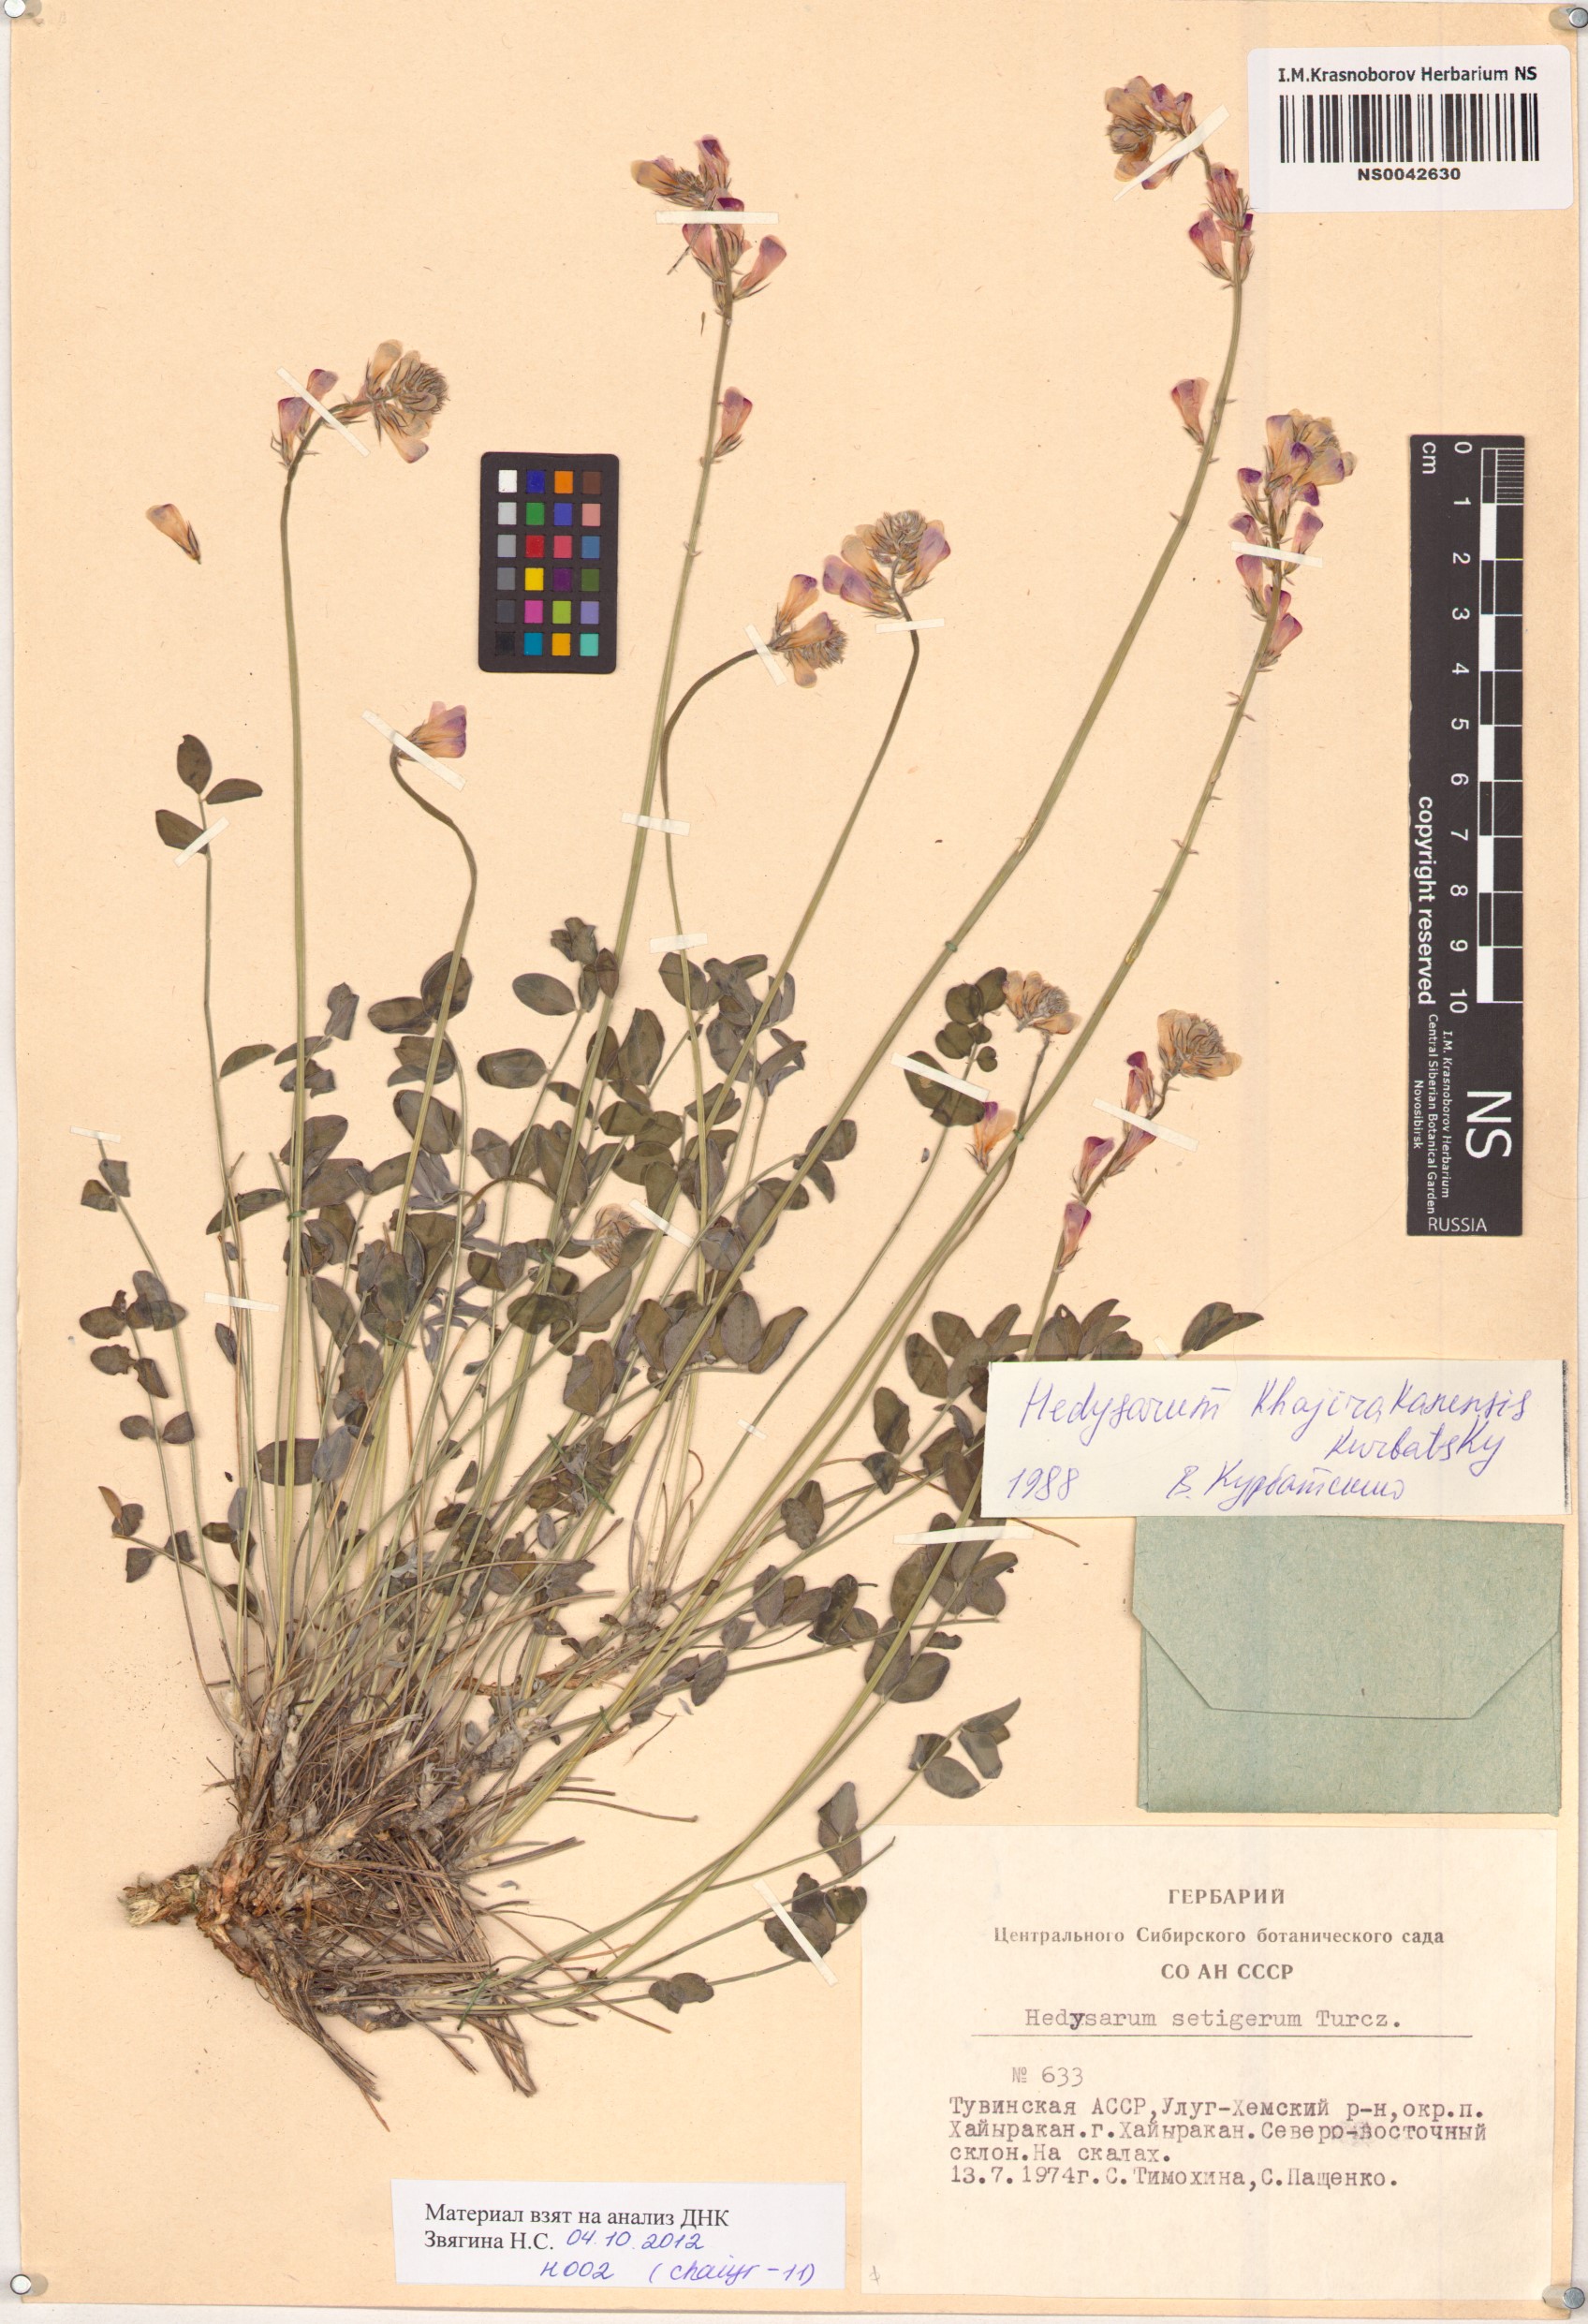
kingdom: Plantae
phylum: Tracheophyta
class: Magnoliopsida
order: Fabales
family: Fabaceae
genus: Hedysarum
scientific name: Hedysarum setigerum
